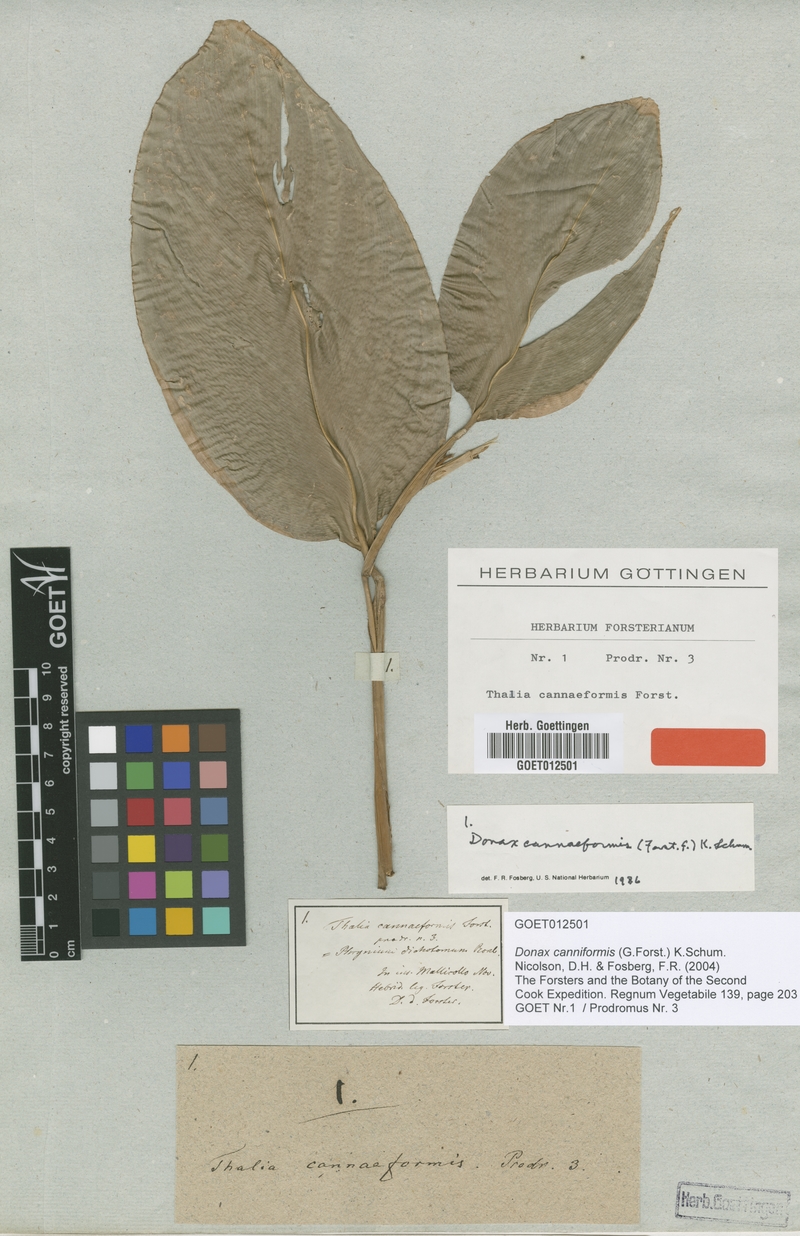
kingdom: Plantae
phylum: Tracheophyta
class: Liliopsida
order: Zingiberales
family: Marantaceae
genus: Donax
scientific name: Donax canniformis
